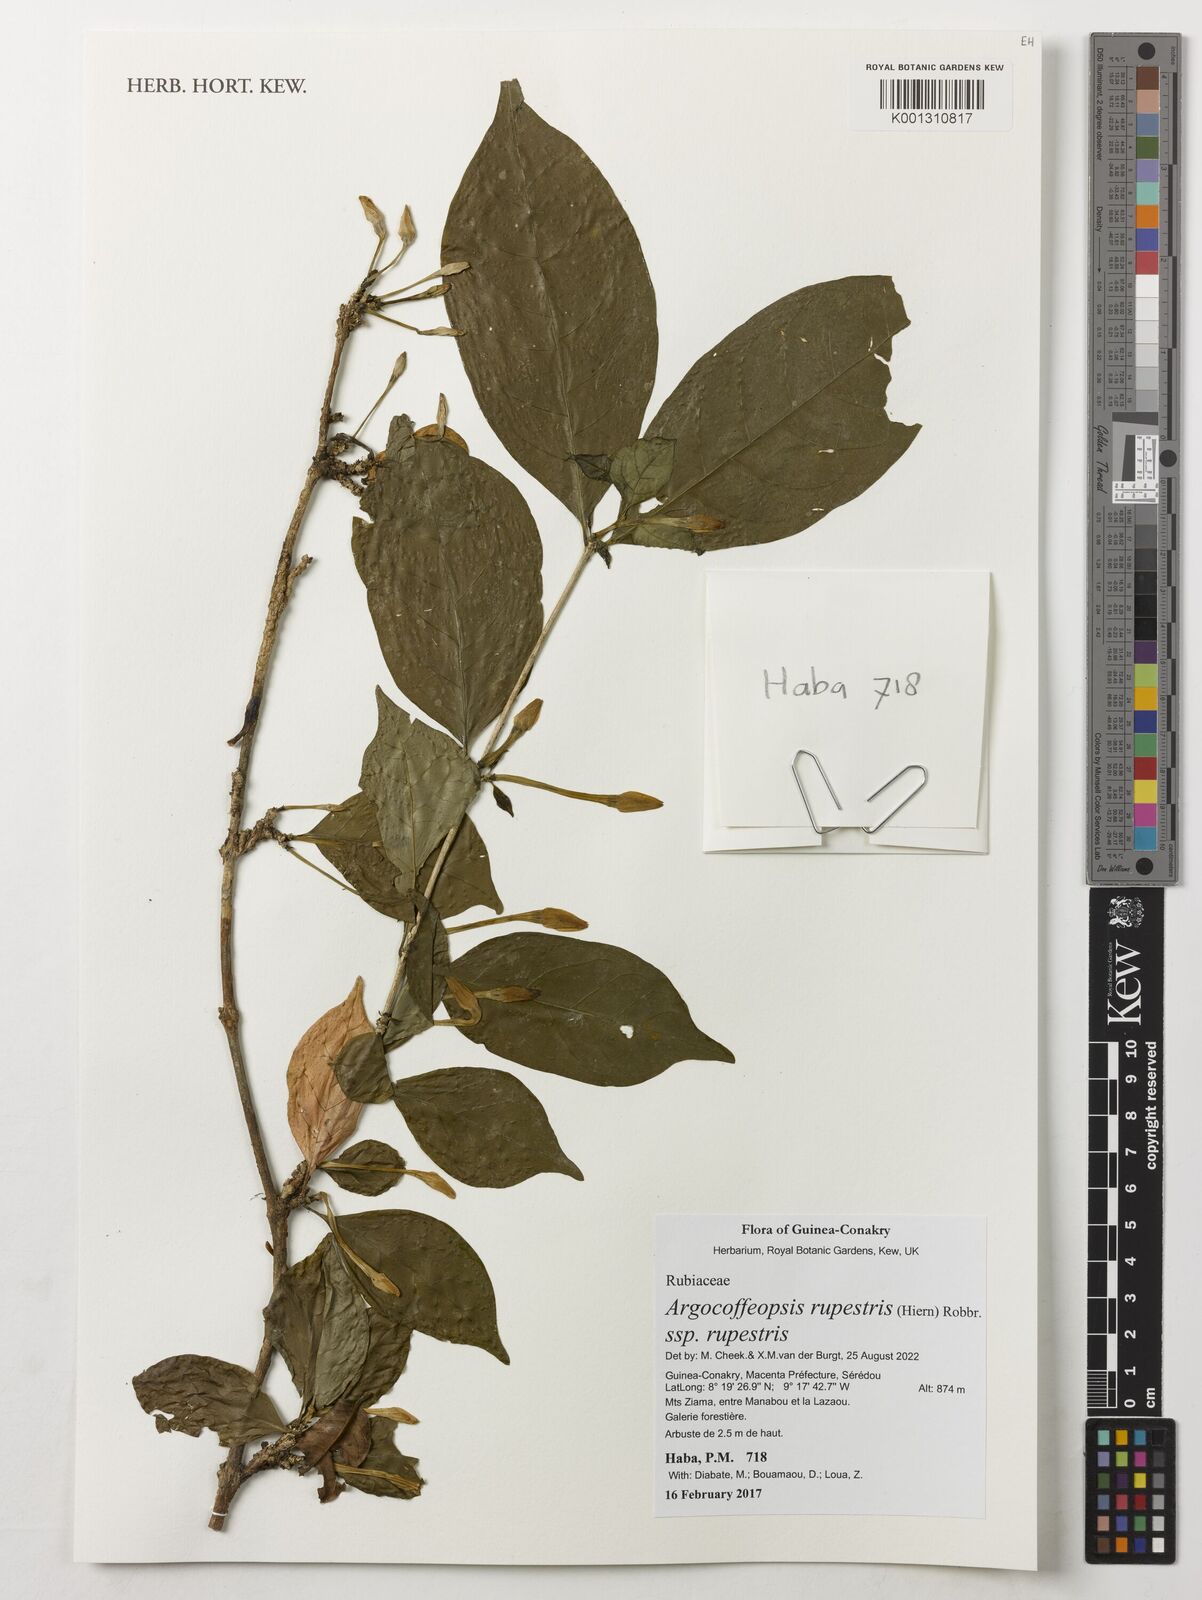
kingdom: Plantae
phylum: Tracheophyta
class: Magnoliopsida
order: Gentianales
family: Rubiaceae
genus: Argocoffeopsis
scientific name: Argocoffeopsis rupestris
